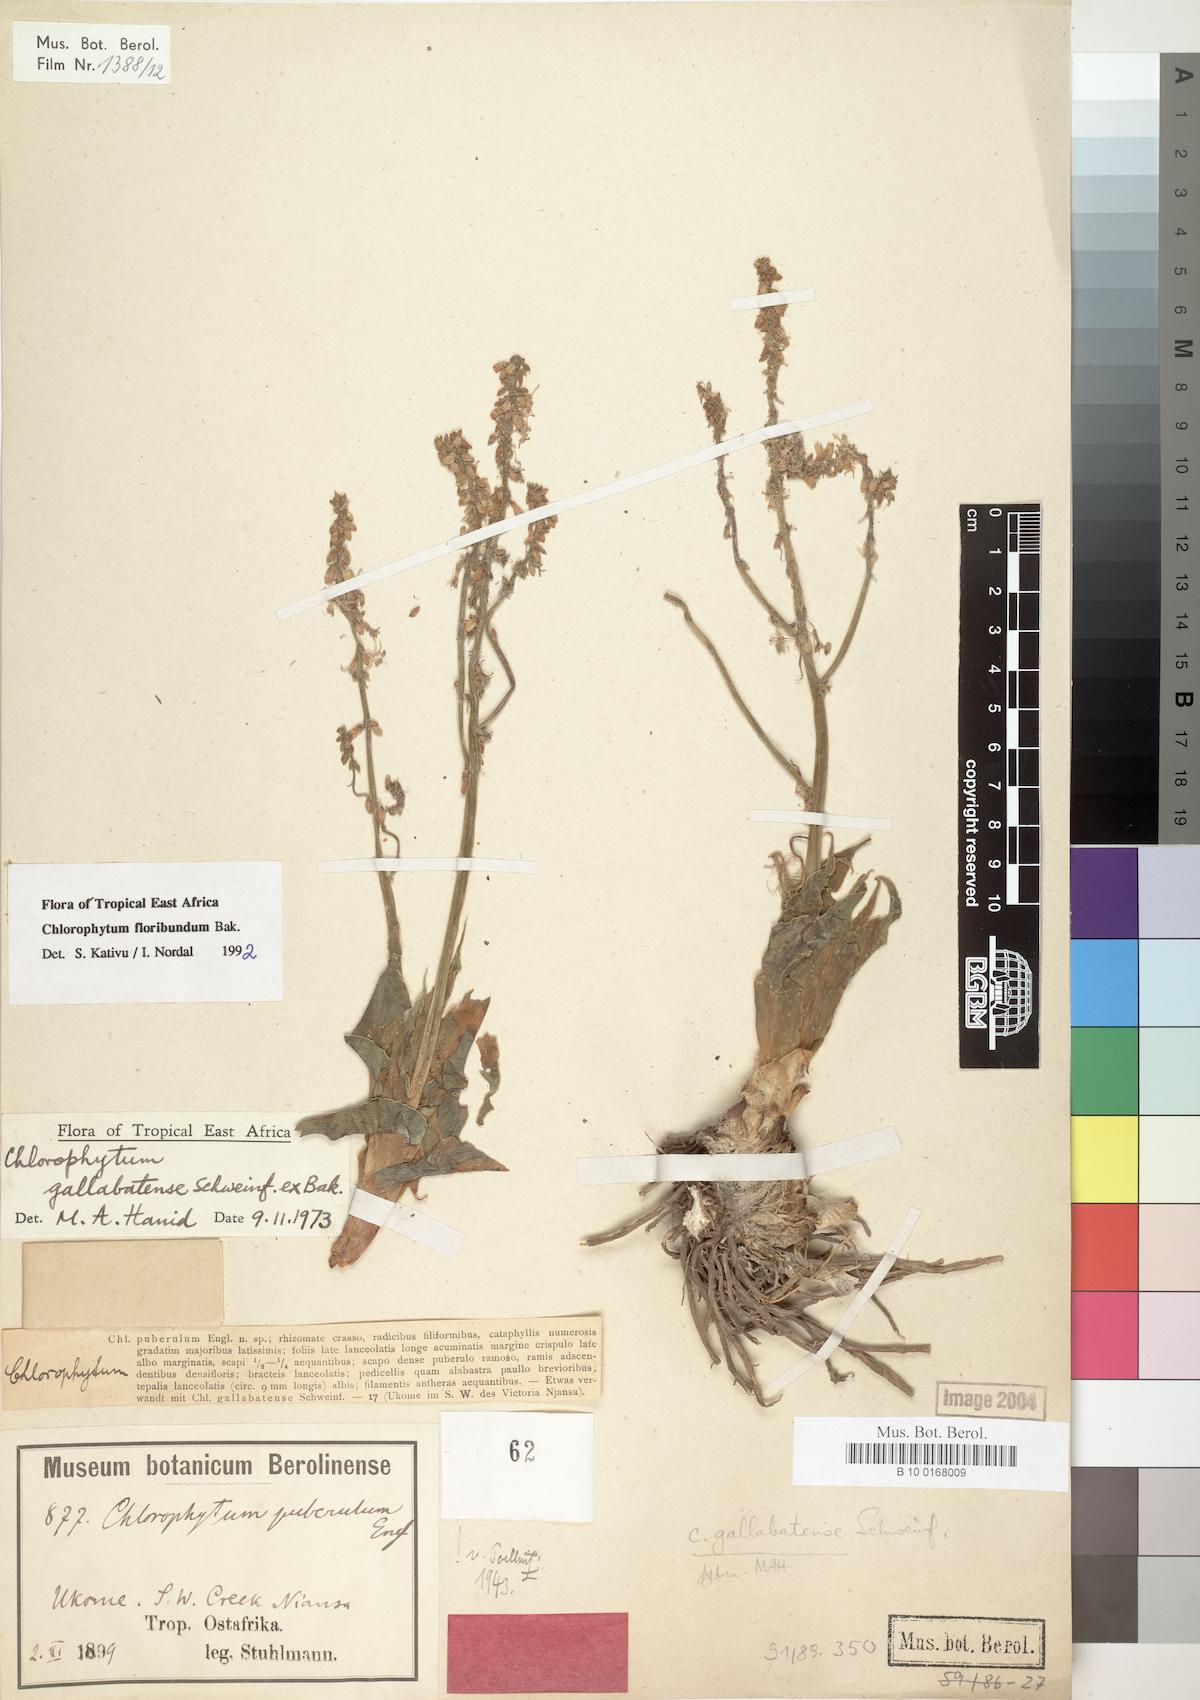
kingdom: Plantae
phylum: Tracheophyta
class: Liliopsida
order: Asparagales
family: Asparagaceae
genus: Chlorophytum
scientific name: Chlorophytum gallabatense
